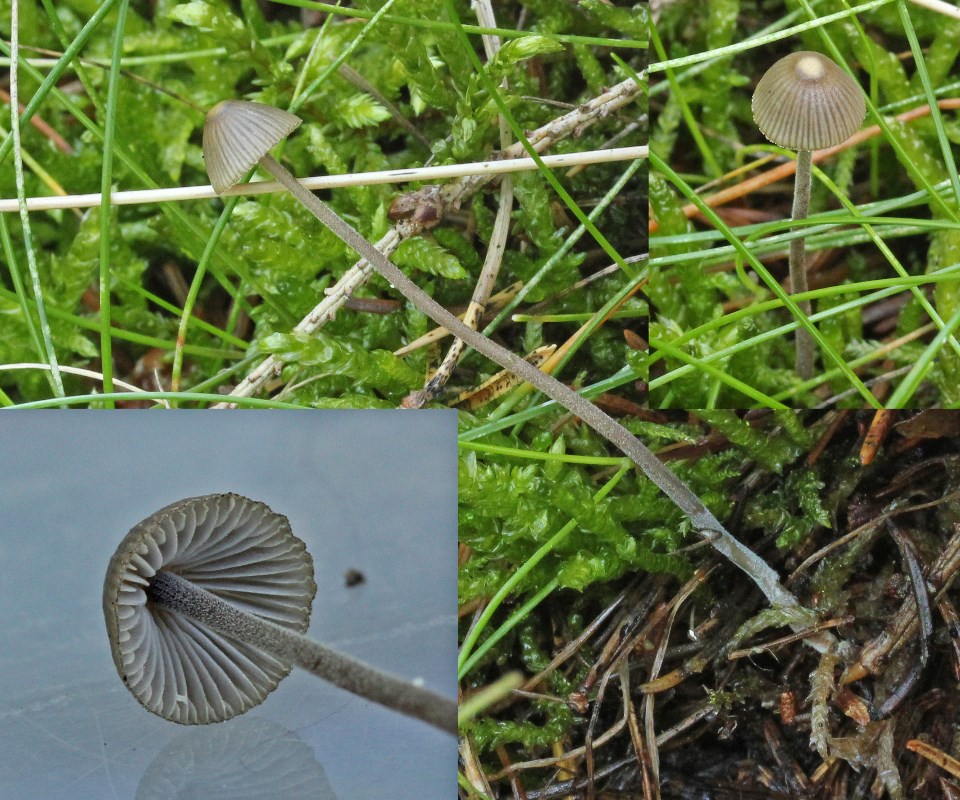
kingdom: Fungi
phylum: Basidiomycota
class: Agaricomycetes
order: Agaricales
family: Mycenaceae
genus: Mycena
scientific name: Mycena amicta
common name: iris-huesvamp
